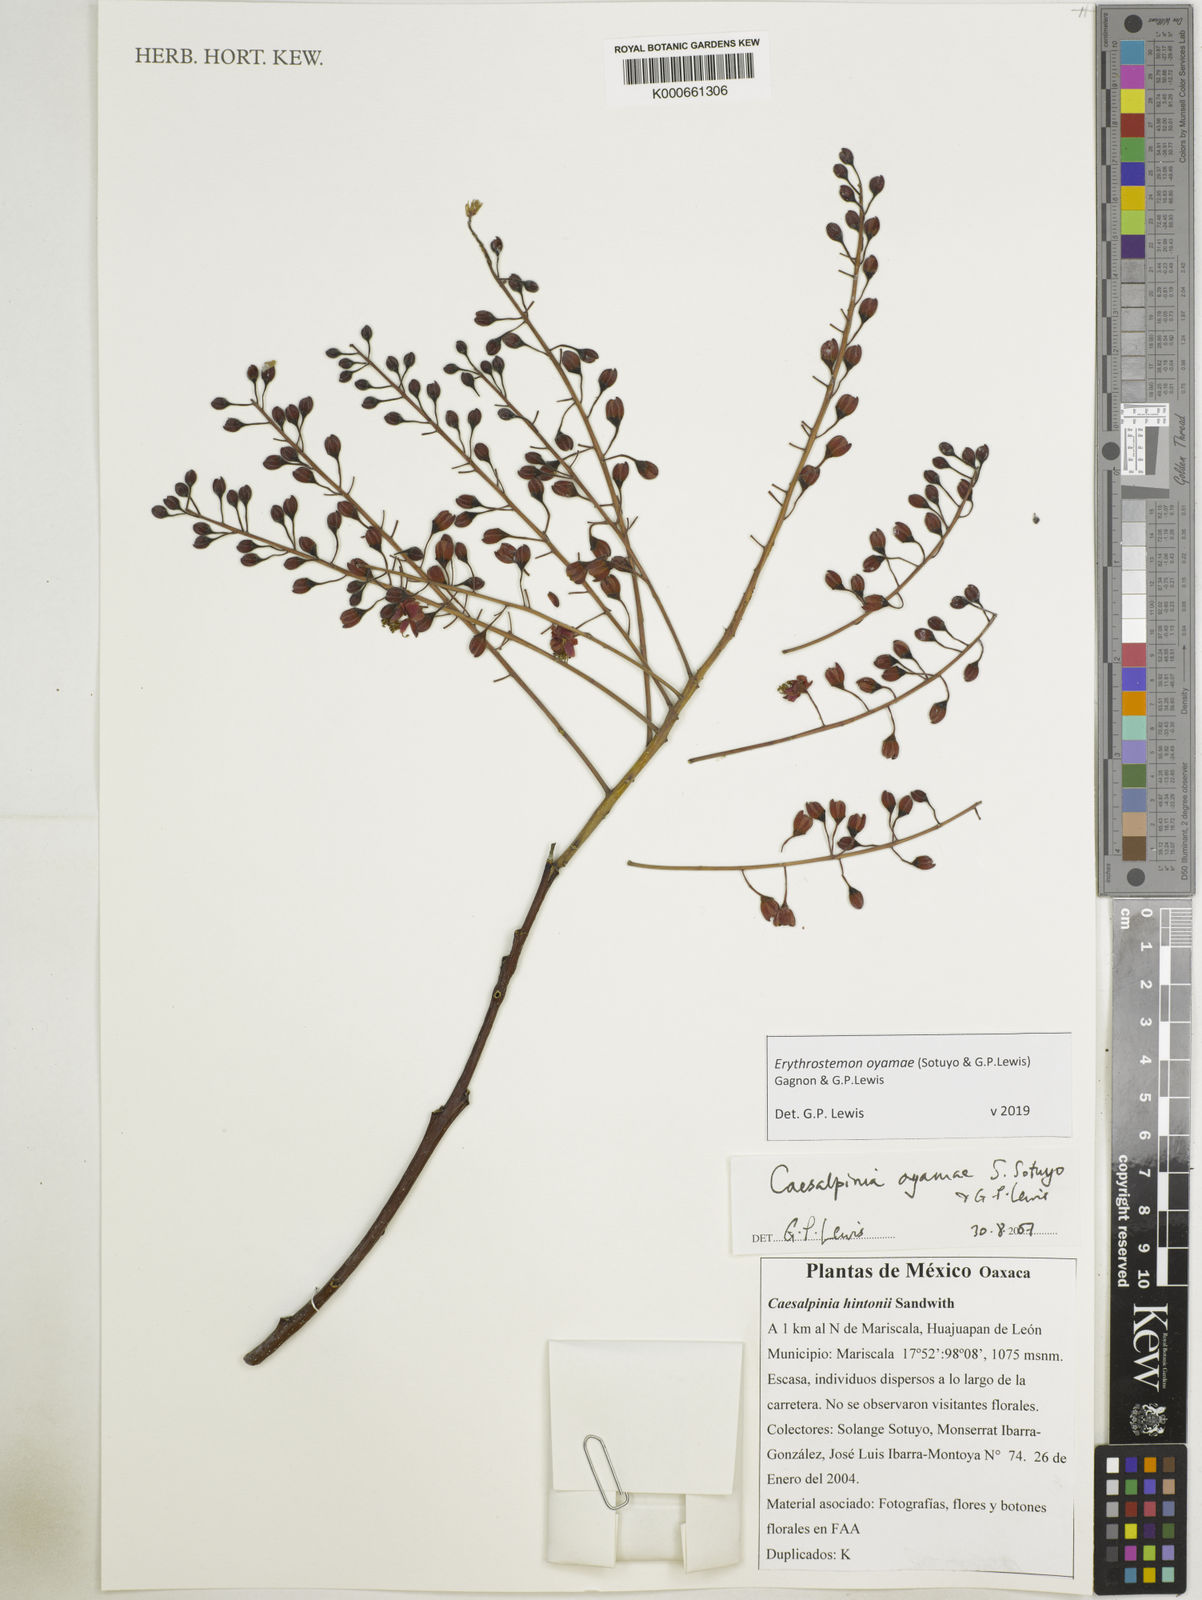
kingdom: Plantae
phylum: Tracheophyta
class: Magnoliopsida
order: Fabales
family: Fabaceae
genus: Erythrostemon
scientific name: Erythrostemon oyamae
